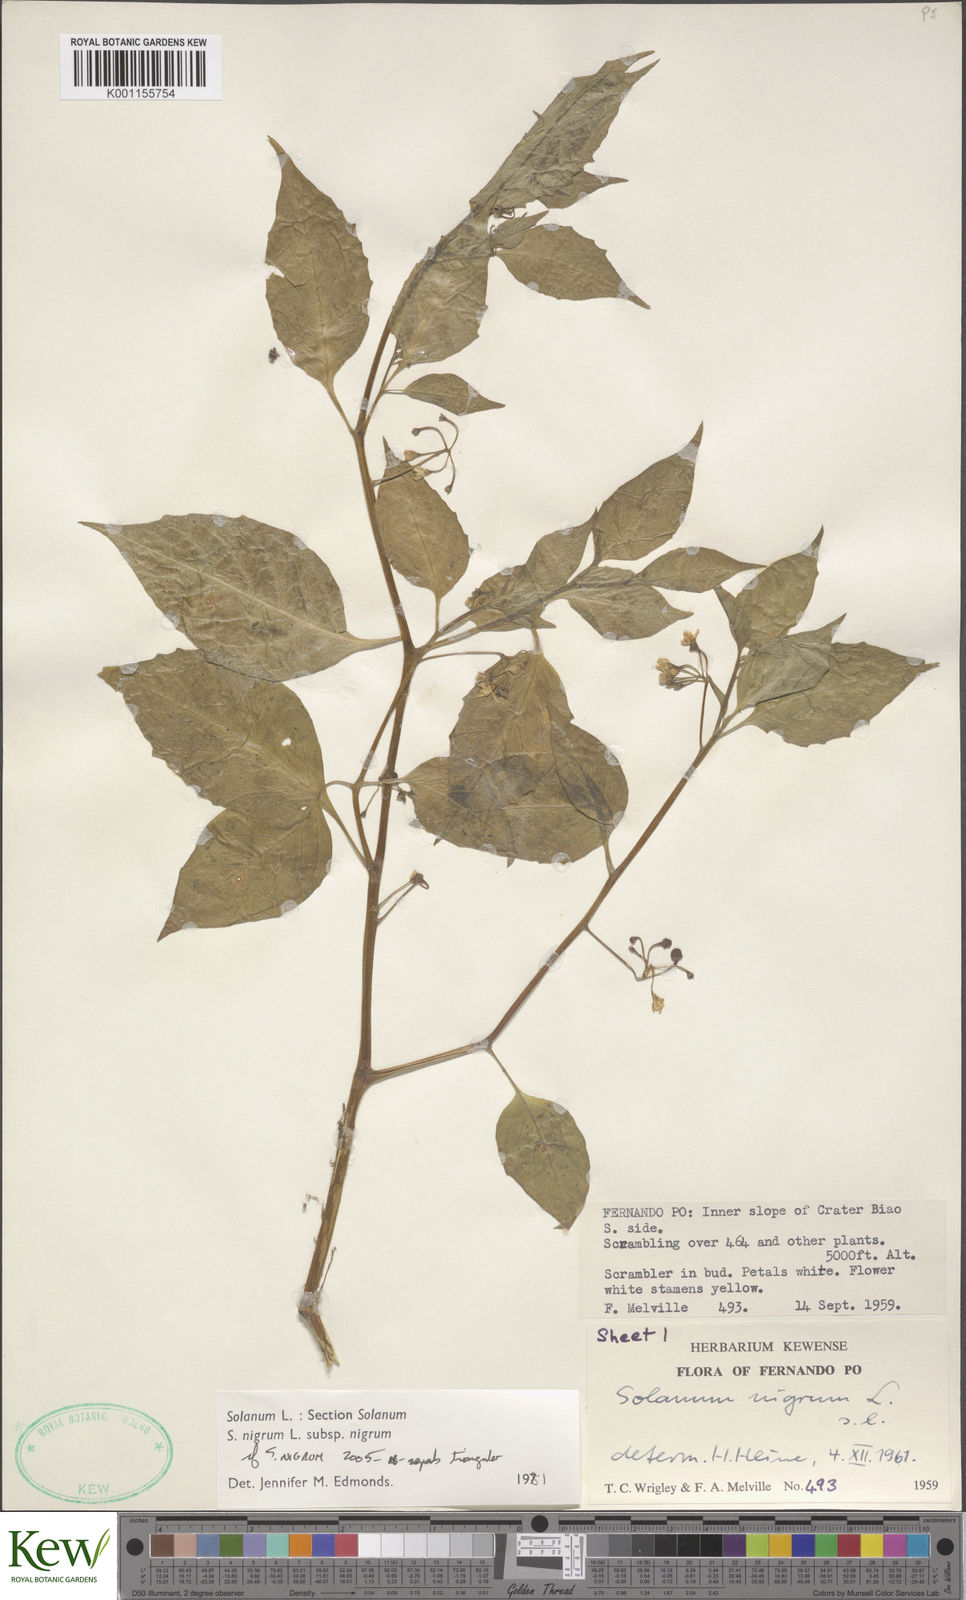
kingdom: Plantae
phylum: Tracheophyta
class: Magnoliopsida
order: Solanales
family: Solanaceae
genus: Solanum
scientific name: Solanum scabrum
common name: Garden-huckleberry
